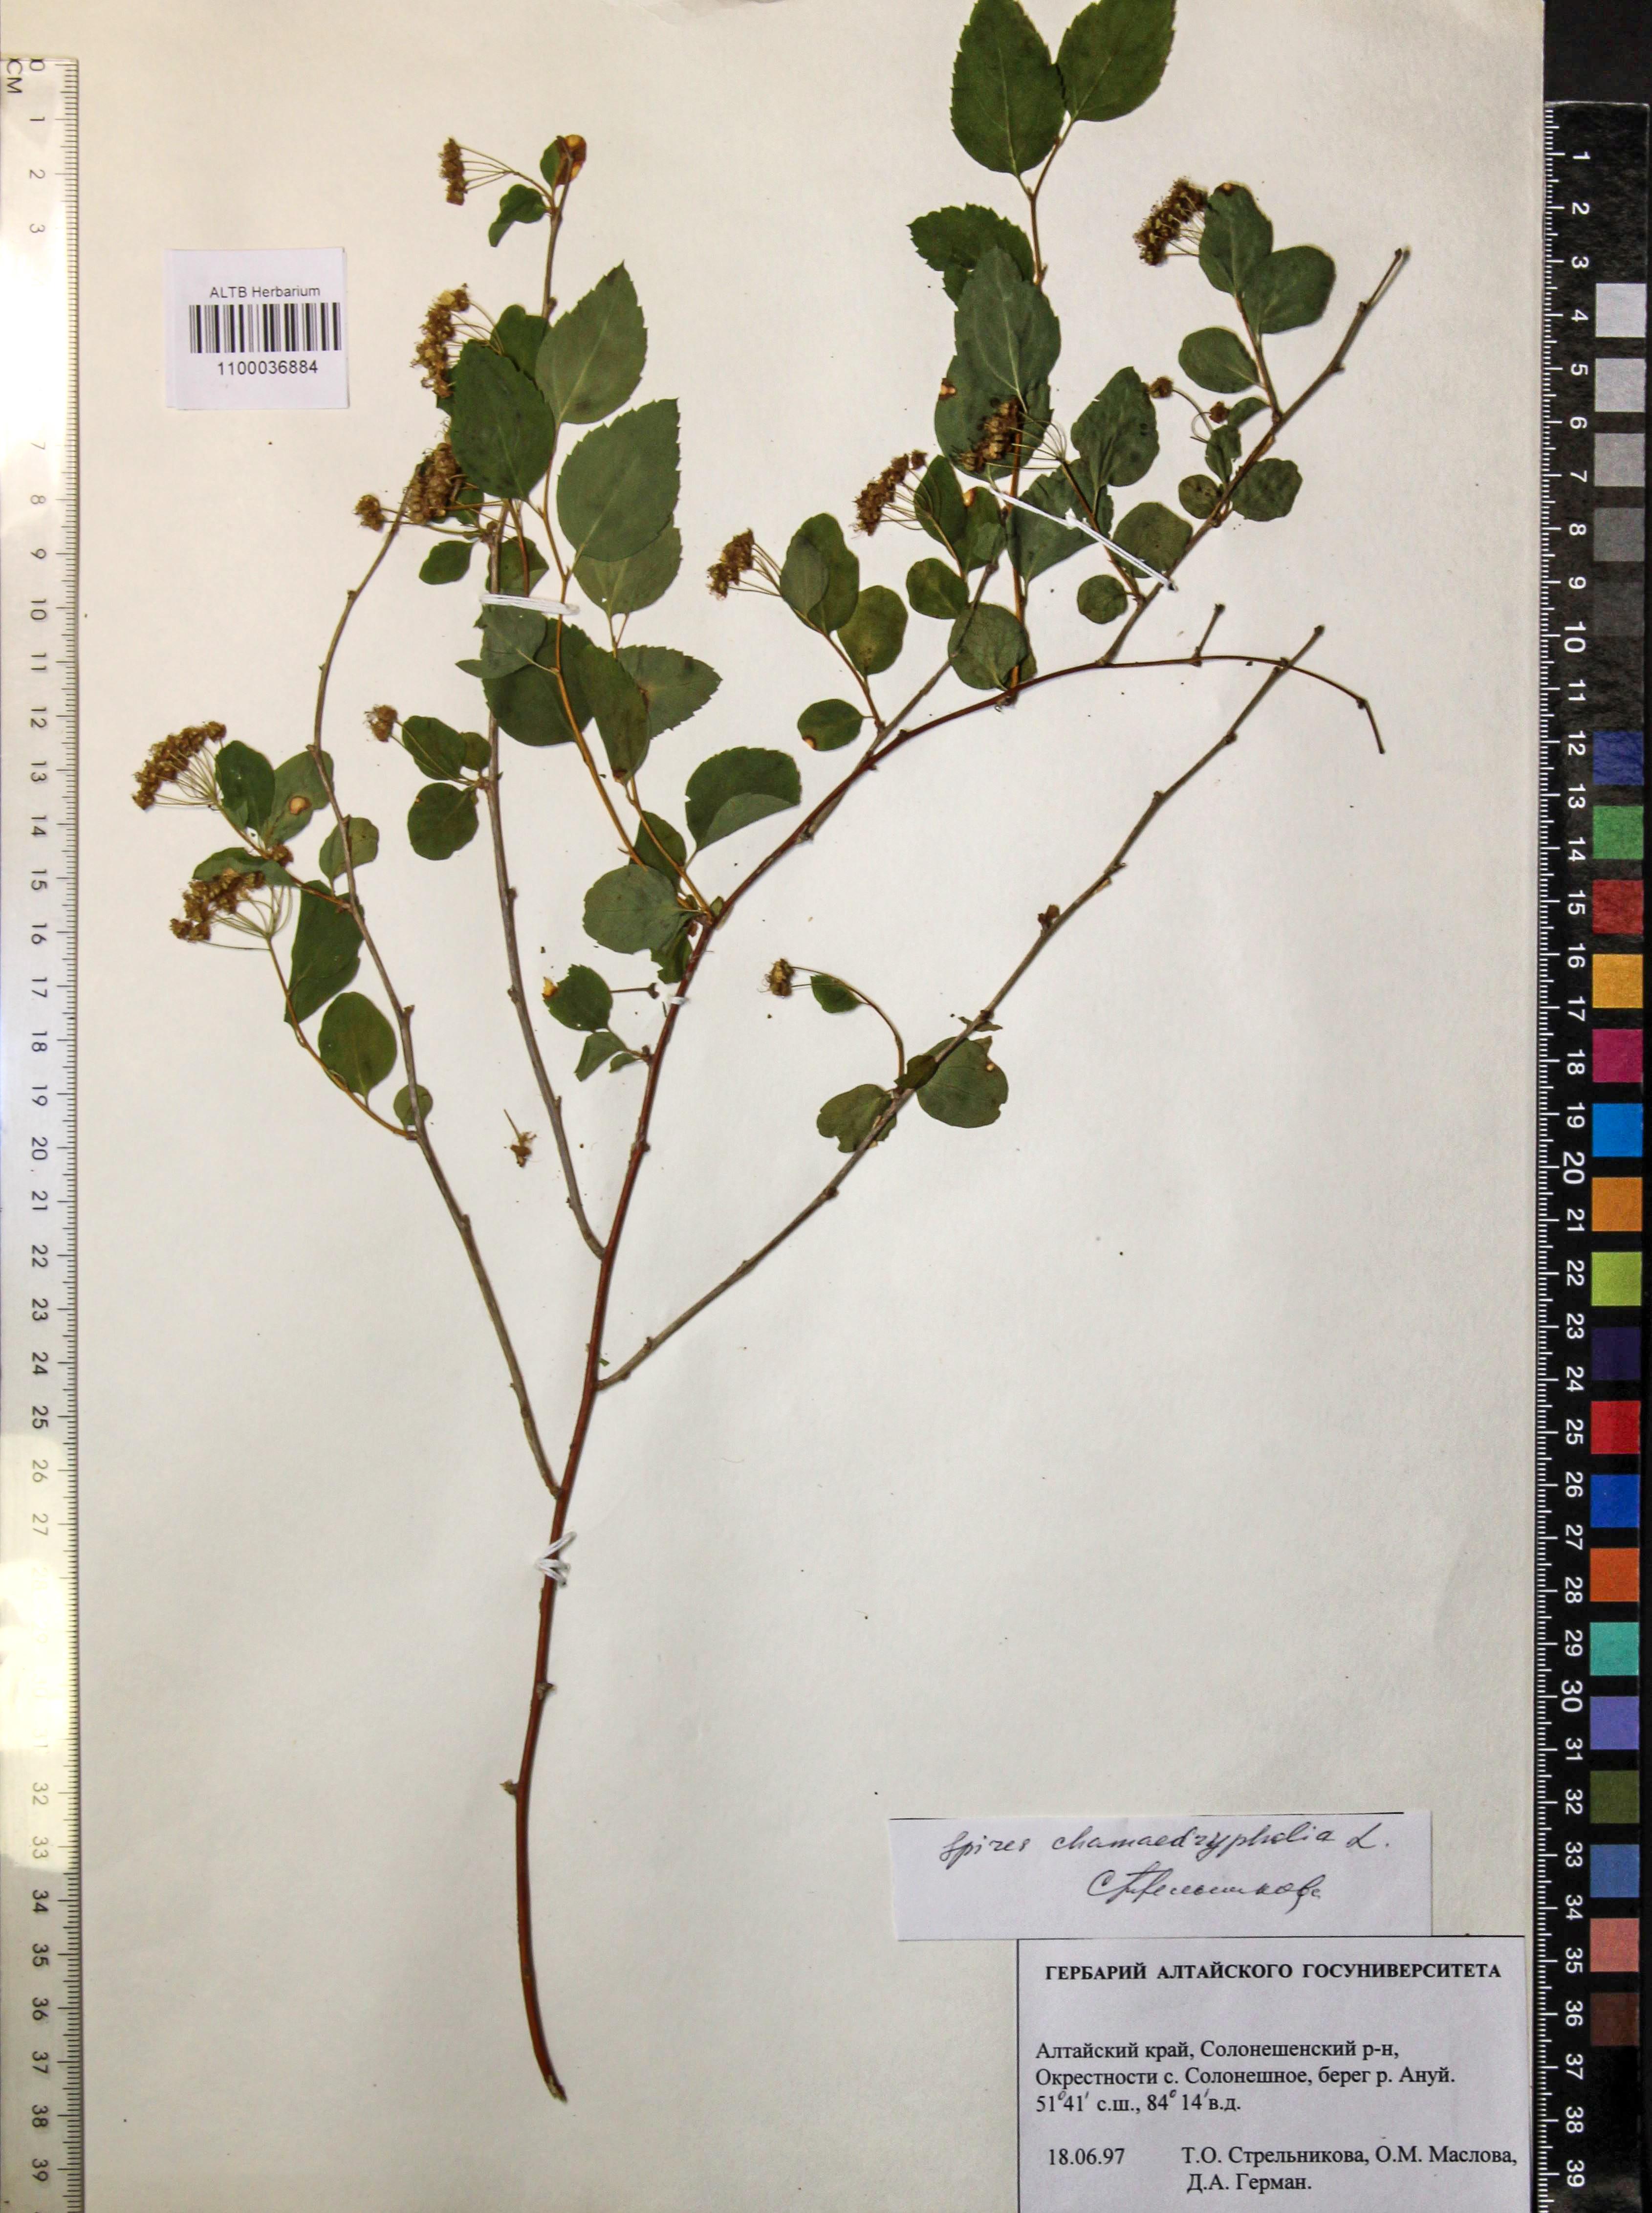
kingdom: Plantae
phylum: Tracheophyta
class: Magnoliopsida
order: Rosales
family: Rosaceae
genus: Spiraea
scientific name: Spiraea chamaedryfolia
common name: Elm-leaved spiraea
